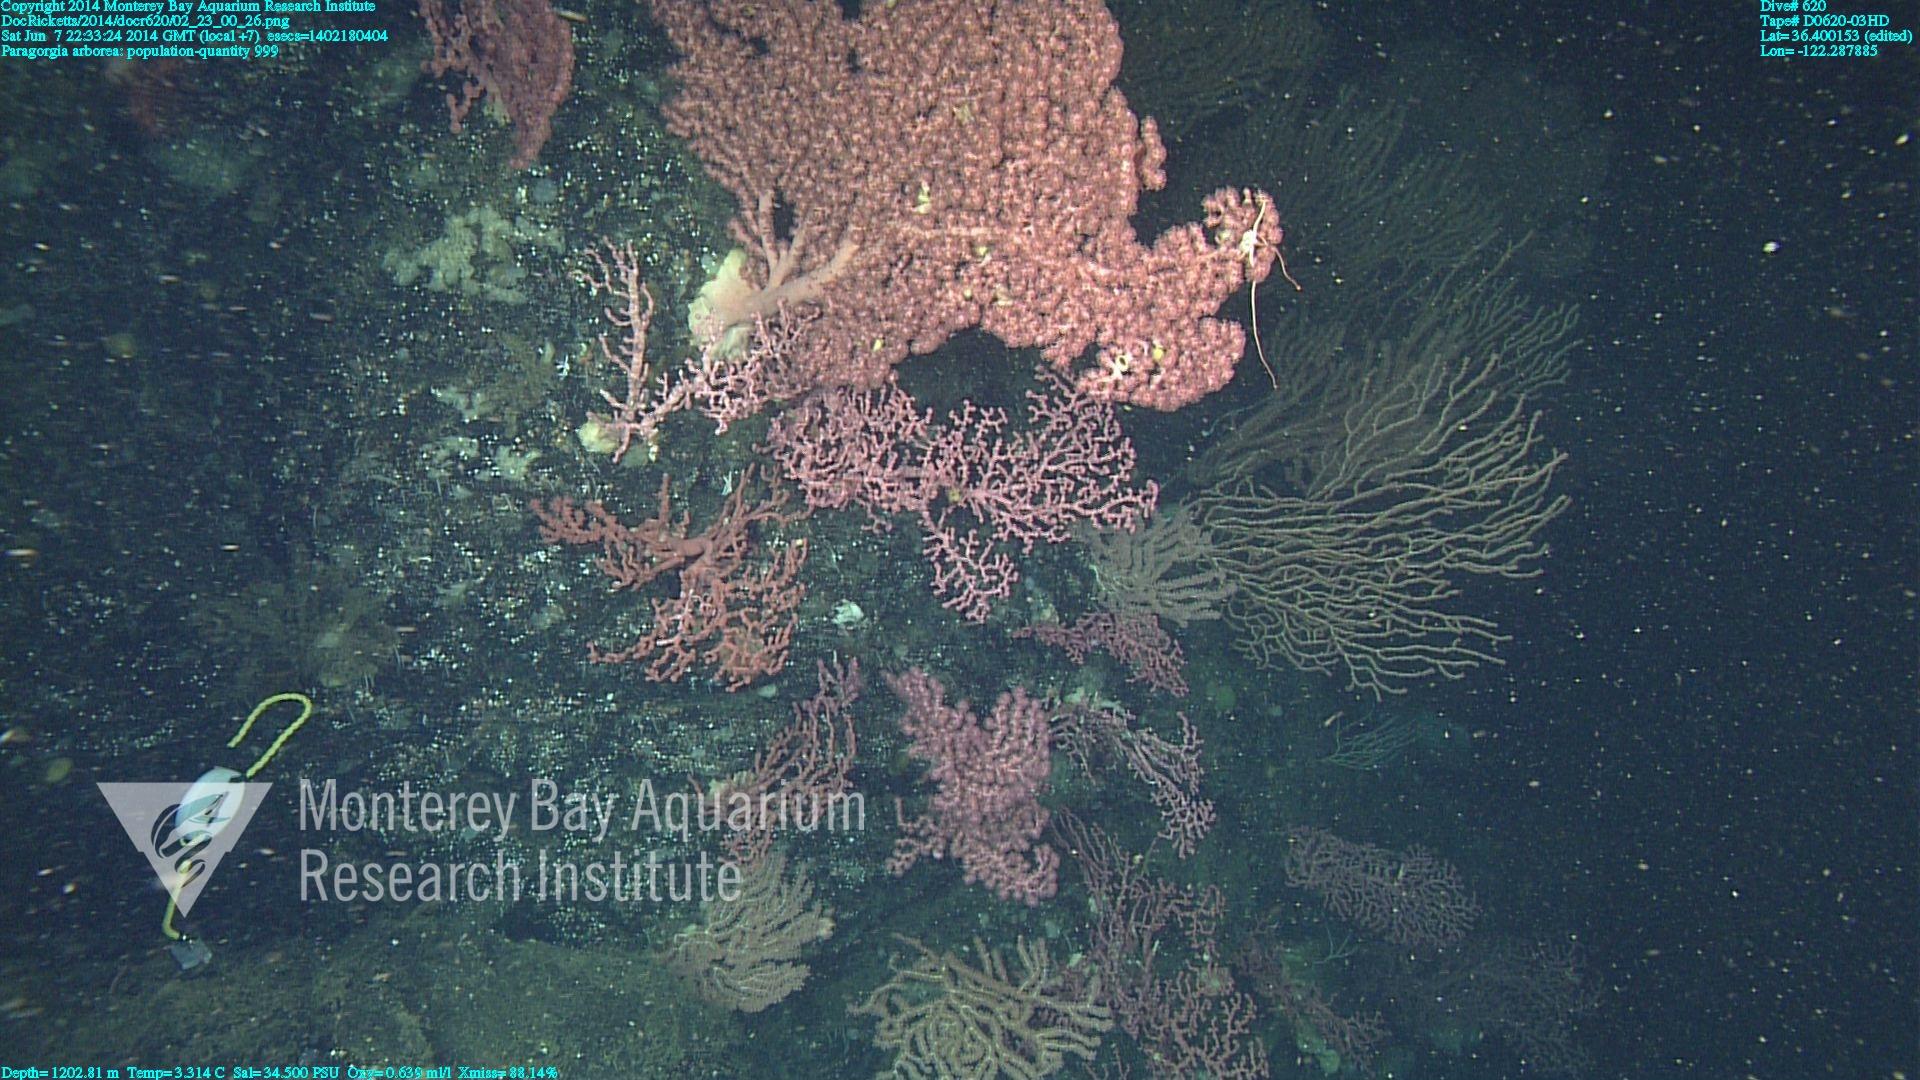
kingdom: Animalia
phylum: Cnidaria
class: Anthozoa
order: Scleralcyonacea
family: Coralliidae
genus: Paragorgia
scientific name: Paragorgia arborea
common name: Bubble gum coral
